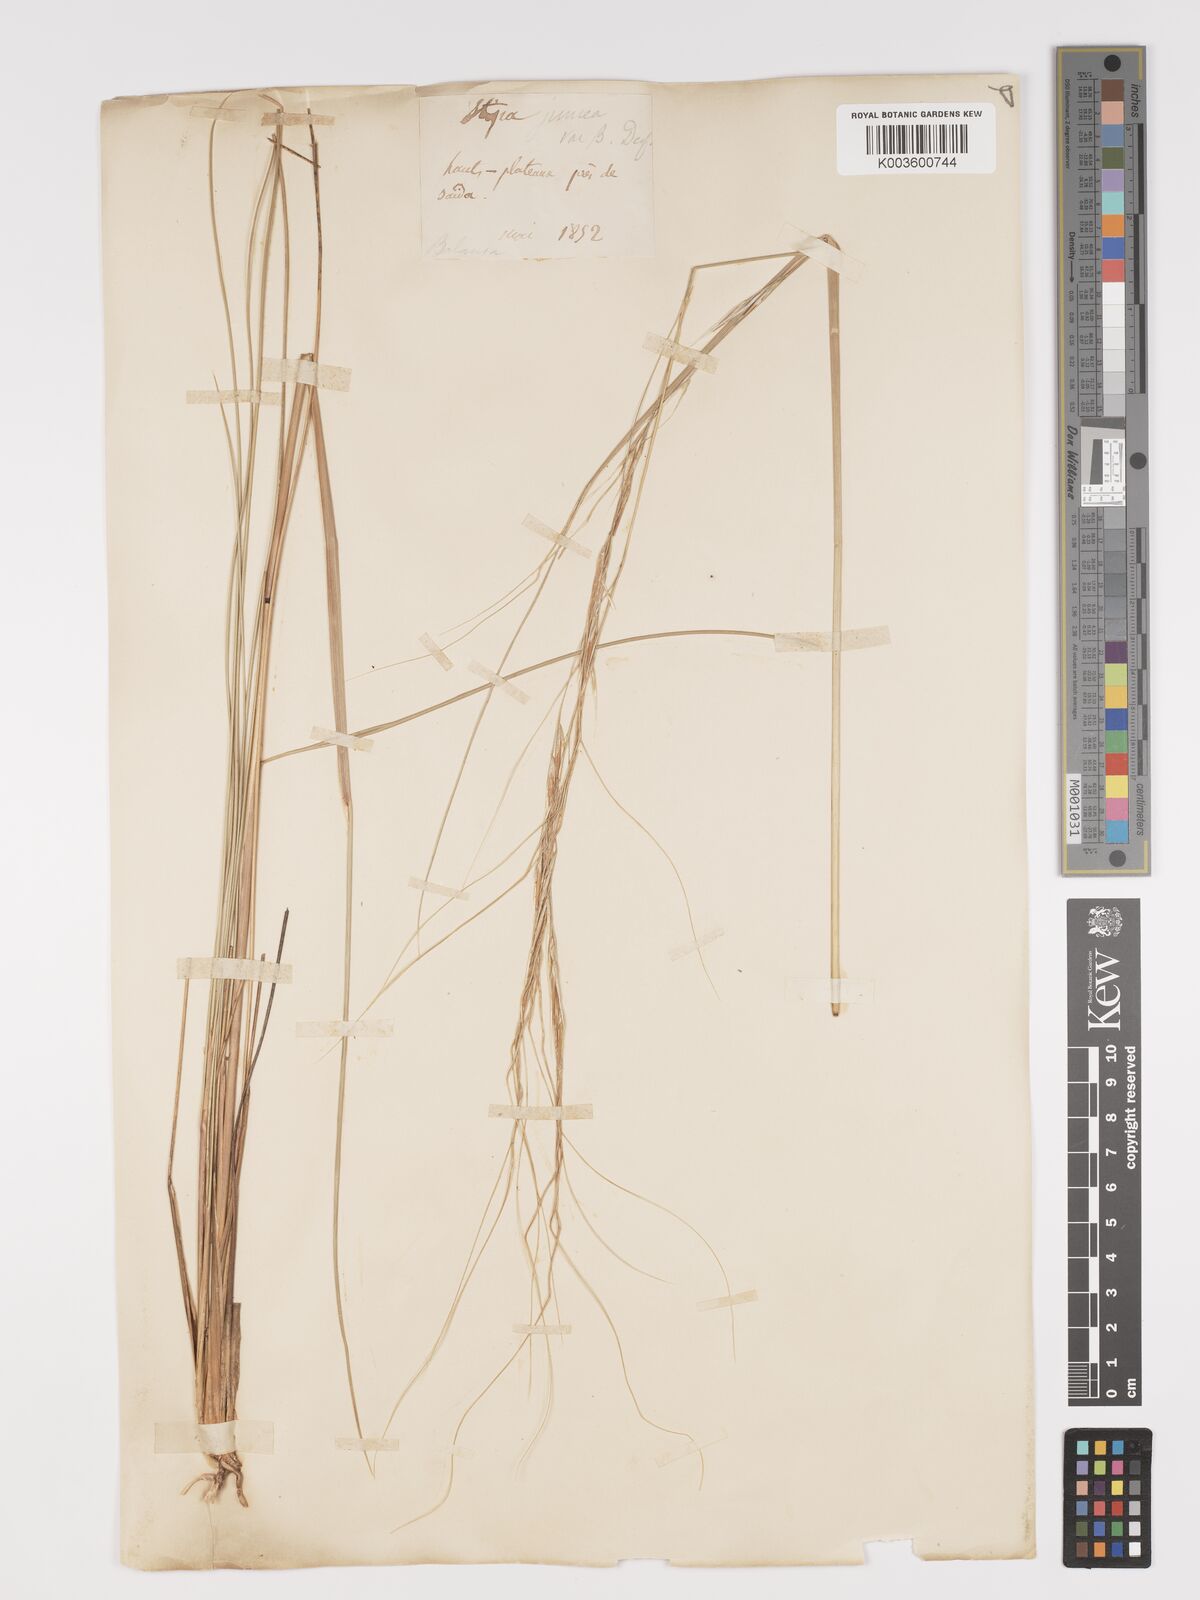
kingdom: Plantae
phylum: Tracheophyta
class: Liliopsida
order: Poales
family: Poaceae
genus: Stipa
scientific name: Stipa lagascae
